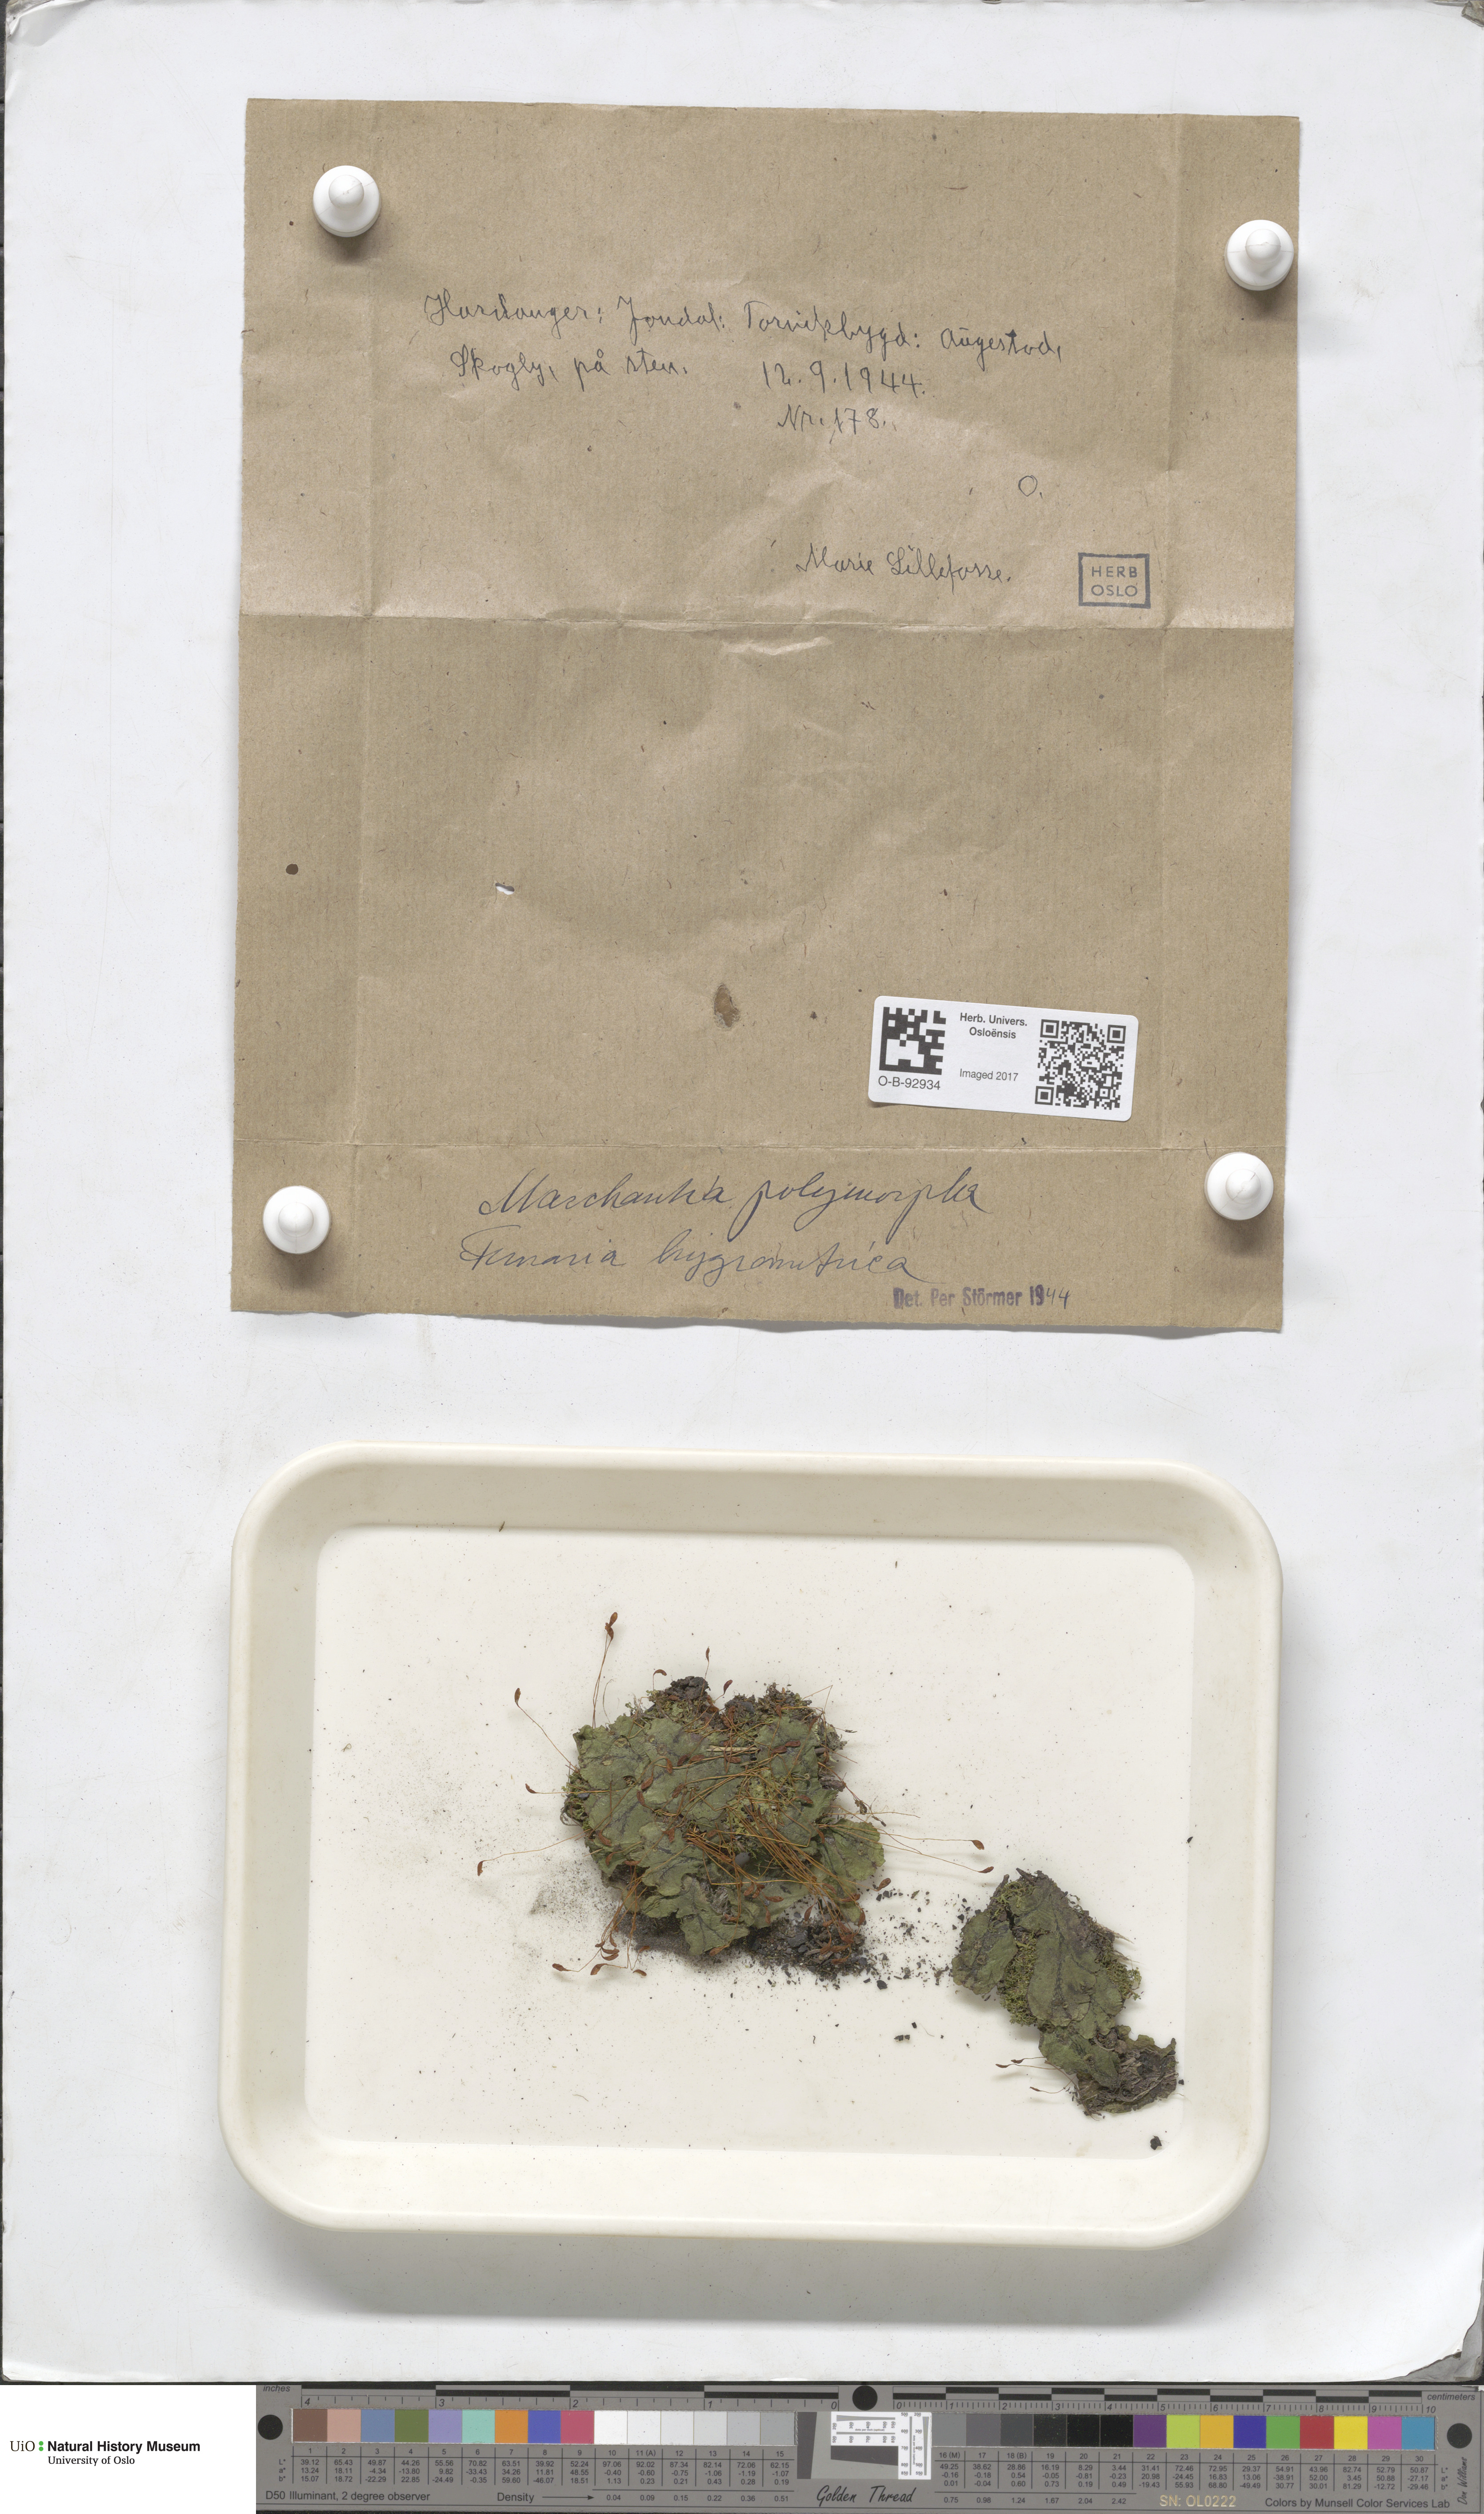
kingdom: Plantae
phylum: Marchantiophyta
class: Marchantiopsida
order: Marchantiales
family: Marchantiaceae
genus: Marchantia
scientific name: Marchantia polymorpha
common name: Common liverwort
